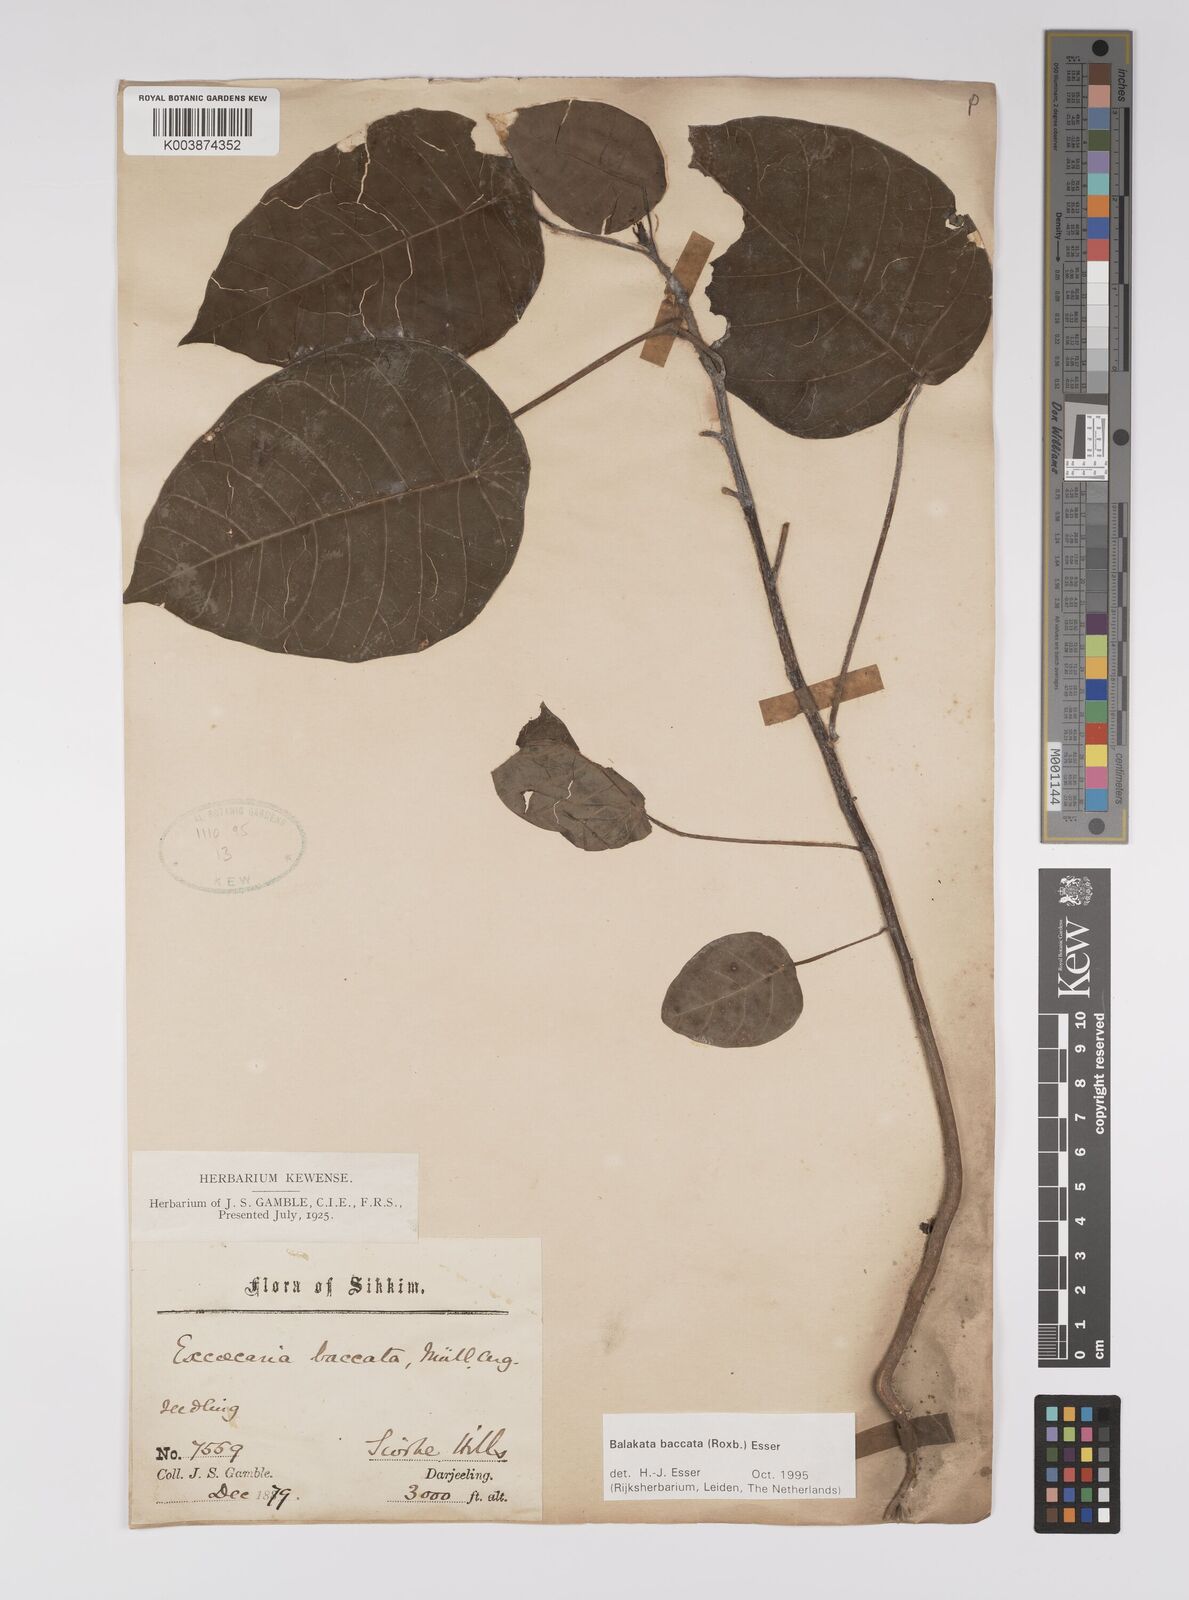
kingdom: Plantae
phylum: Tracheophyta
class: Magnoliopsida
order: Malpighiales
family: Euphorbiaceae
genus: Balakata
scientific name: Balakata baccata
